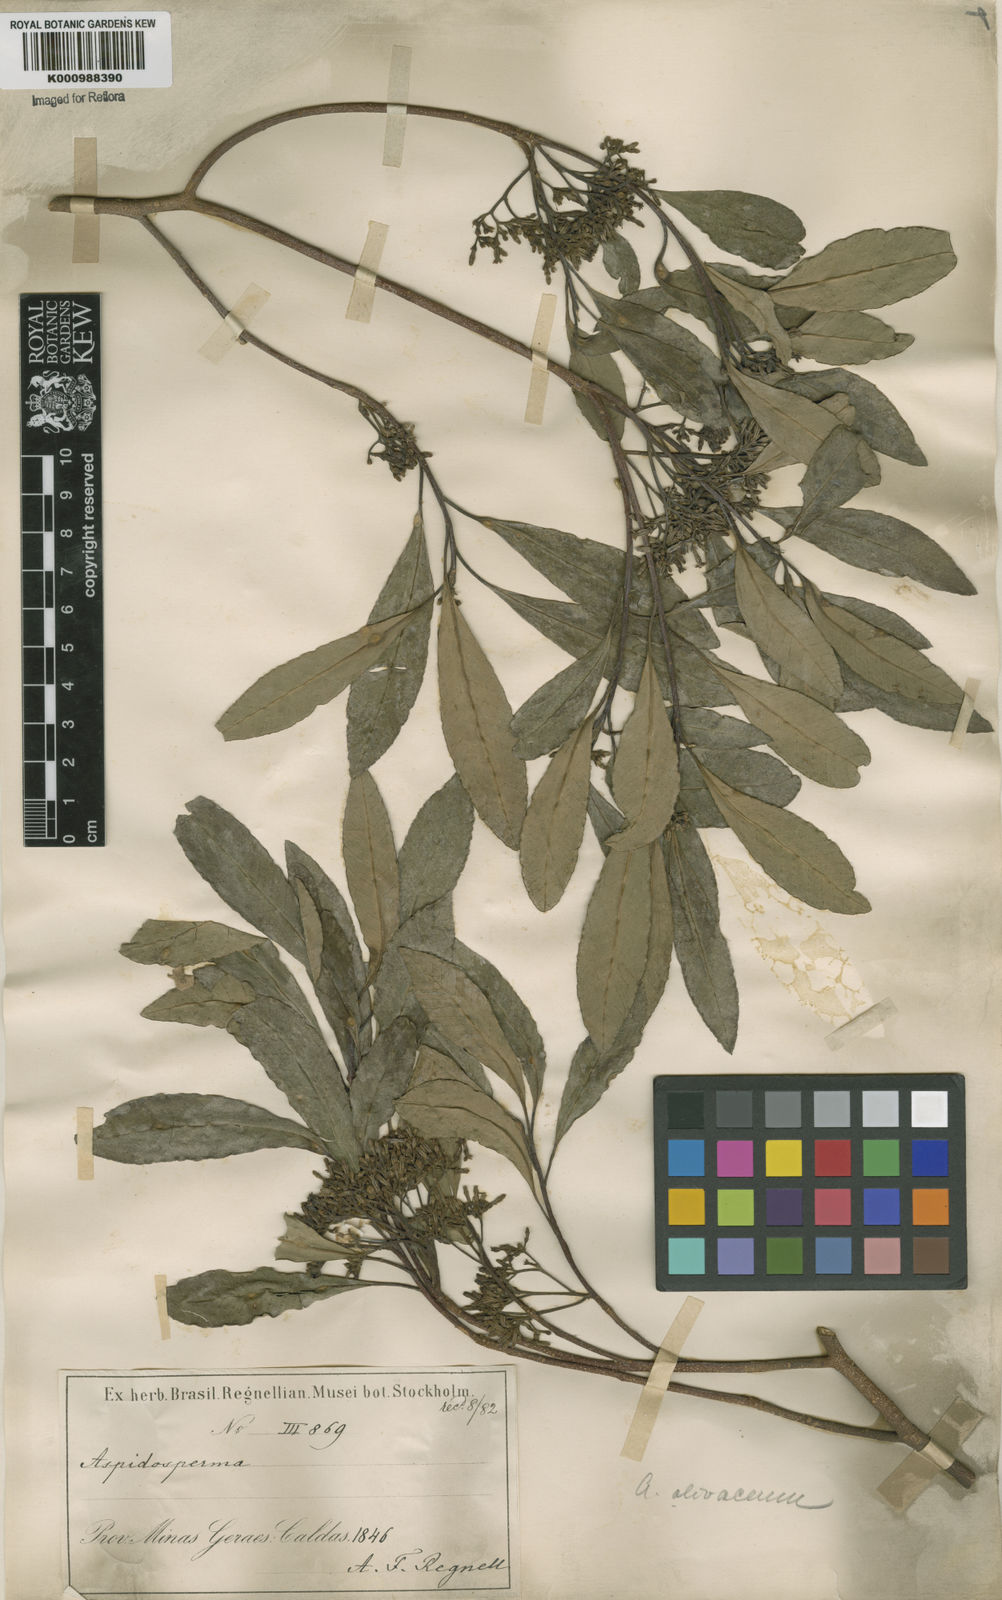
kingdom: Plantae
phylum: Tracheophyta
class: Magnoliopsida
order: Gentianales
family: Apocynaceae
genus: Aspidosperma
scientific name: Aspidosperma
